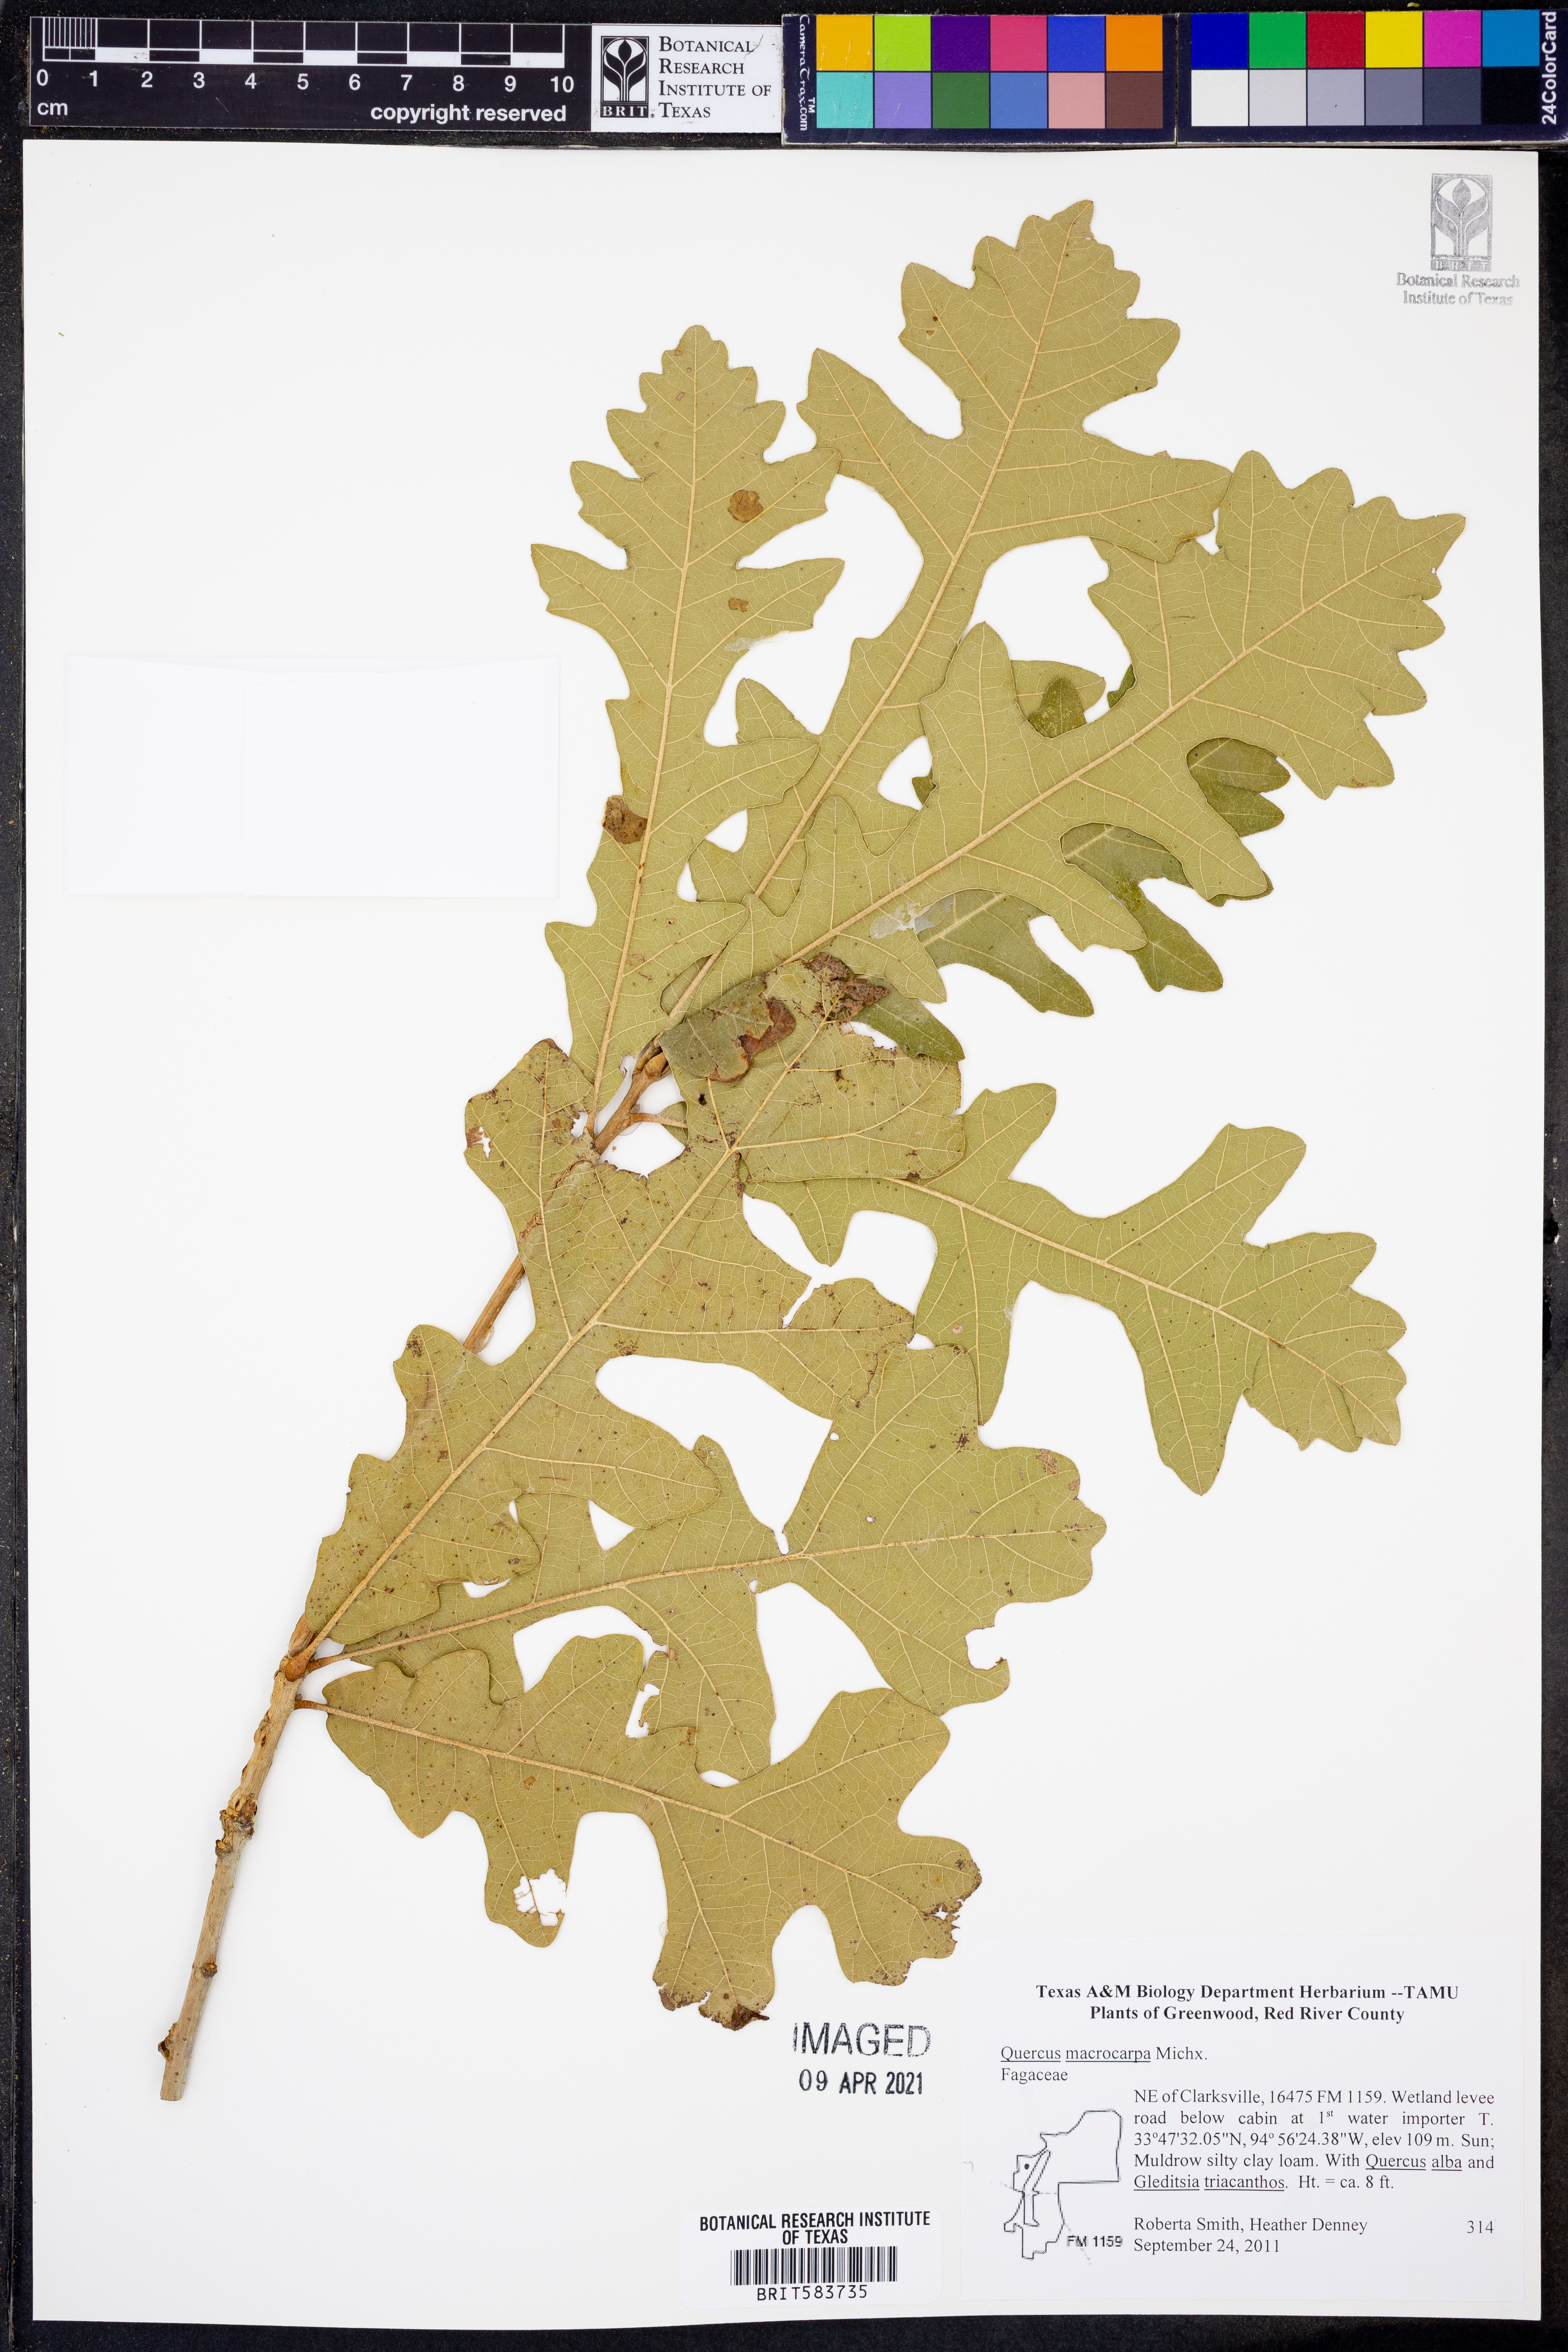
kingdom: Plantae
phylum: Tracheophyta
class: Magnoliopsida
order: Fagales
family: Fagaceae
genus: Quercus
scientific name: Quercus macrocarpa
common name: Bur oak
